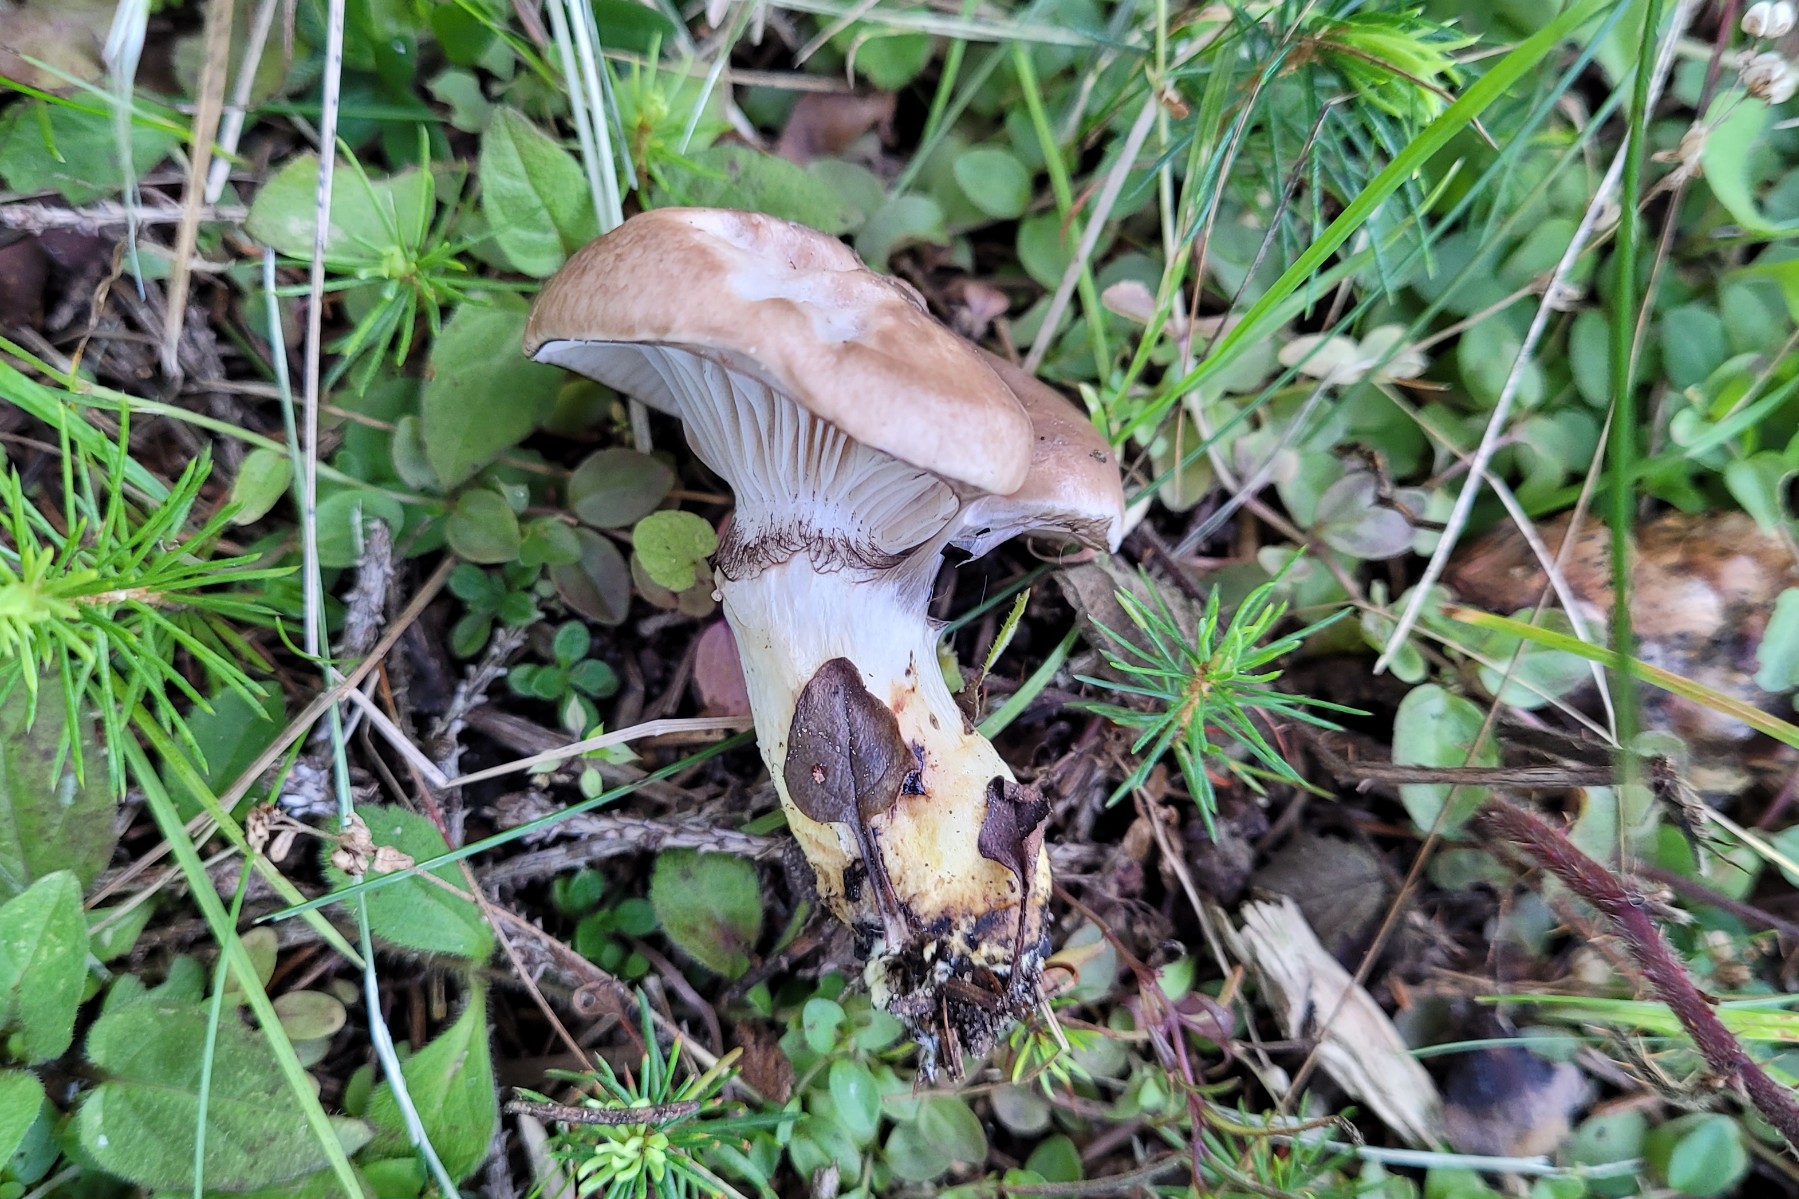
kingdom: Fungi
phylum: Basidiomycota
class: Agaricomycetes
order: Boletales
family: Gomphidiaceae
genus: Gomphidius
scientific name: Gomphidius glutinosus
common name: grå slimslør
